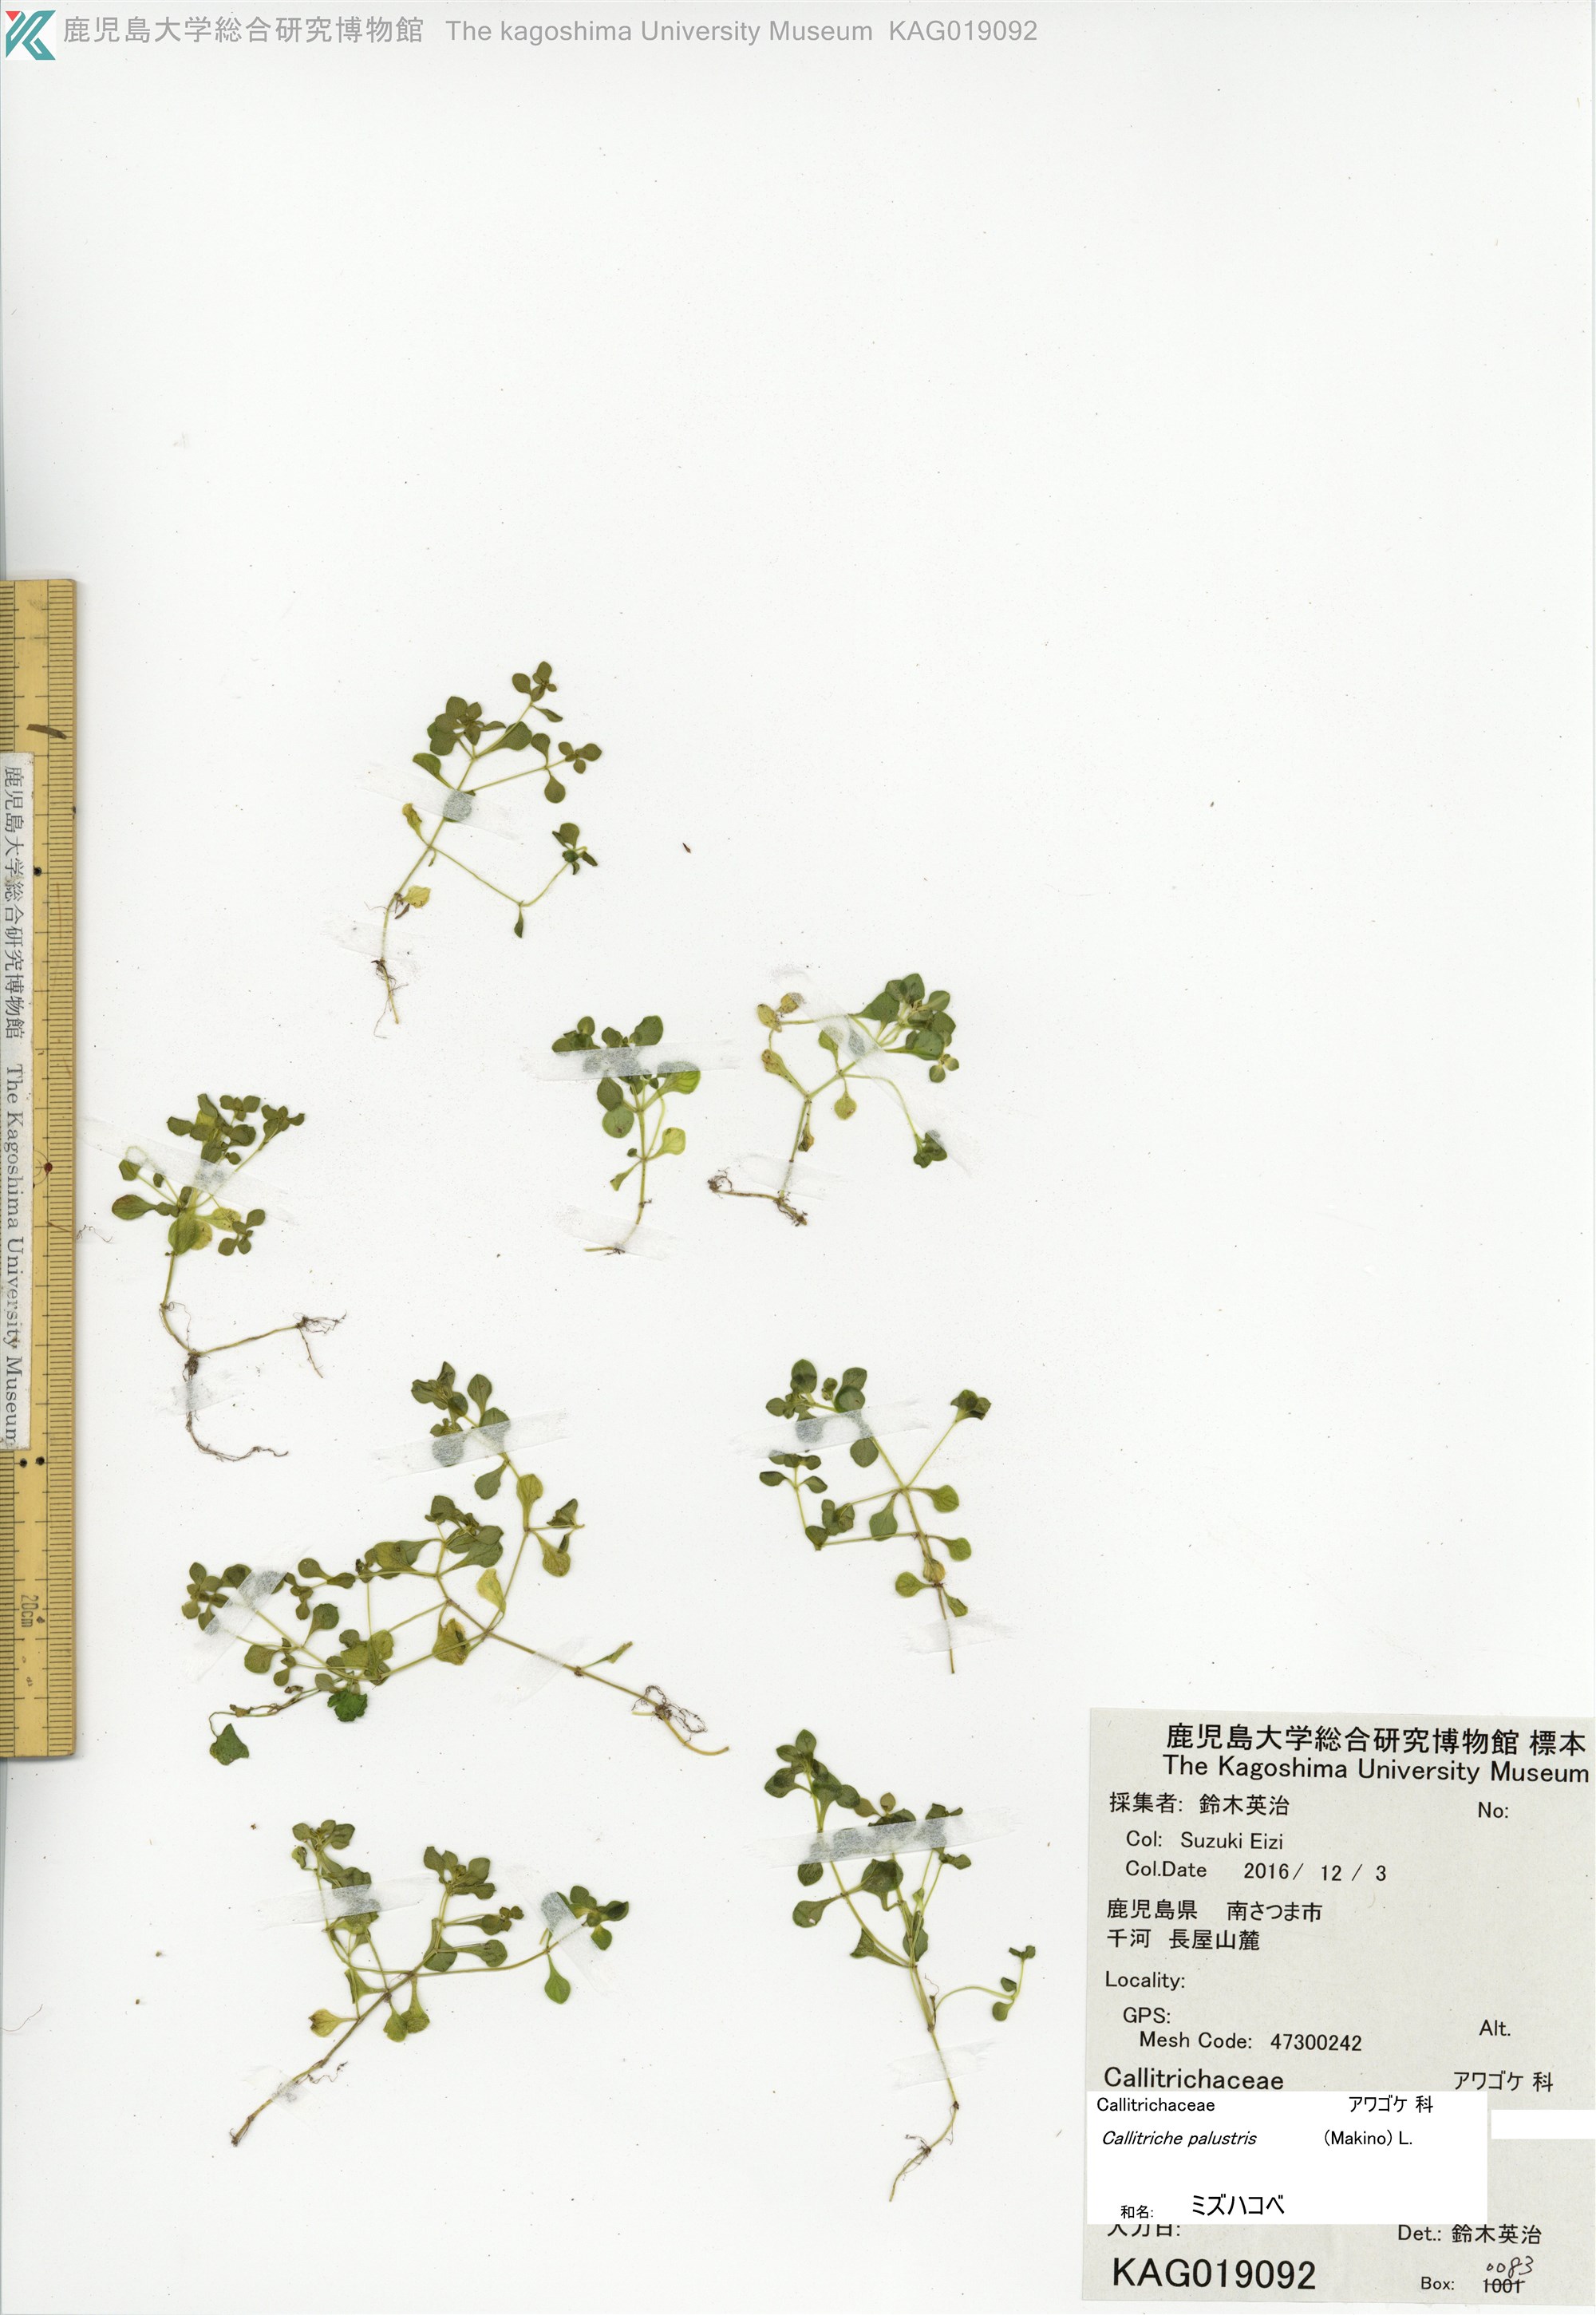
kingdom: Plantae
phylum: Tracheophyta
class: Magnoliopsida
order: Lamiales
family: Plantaginaceae
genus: Callitriche
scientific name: Callitriche palustris
